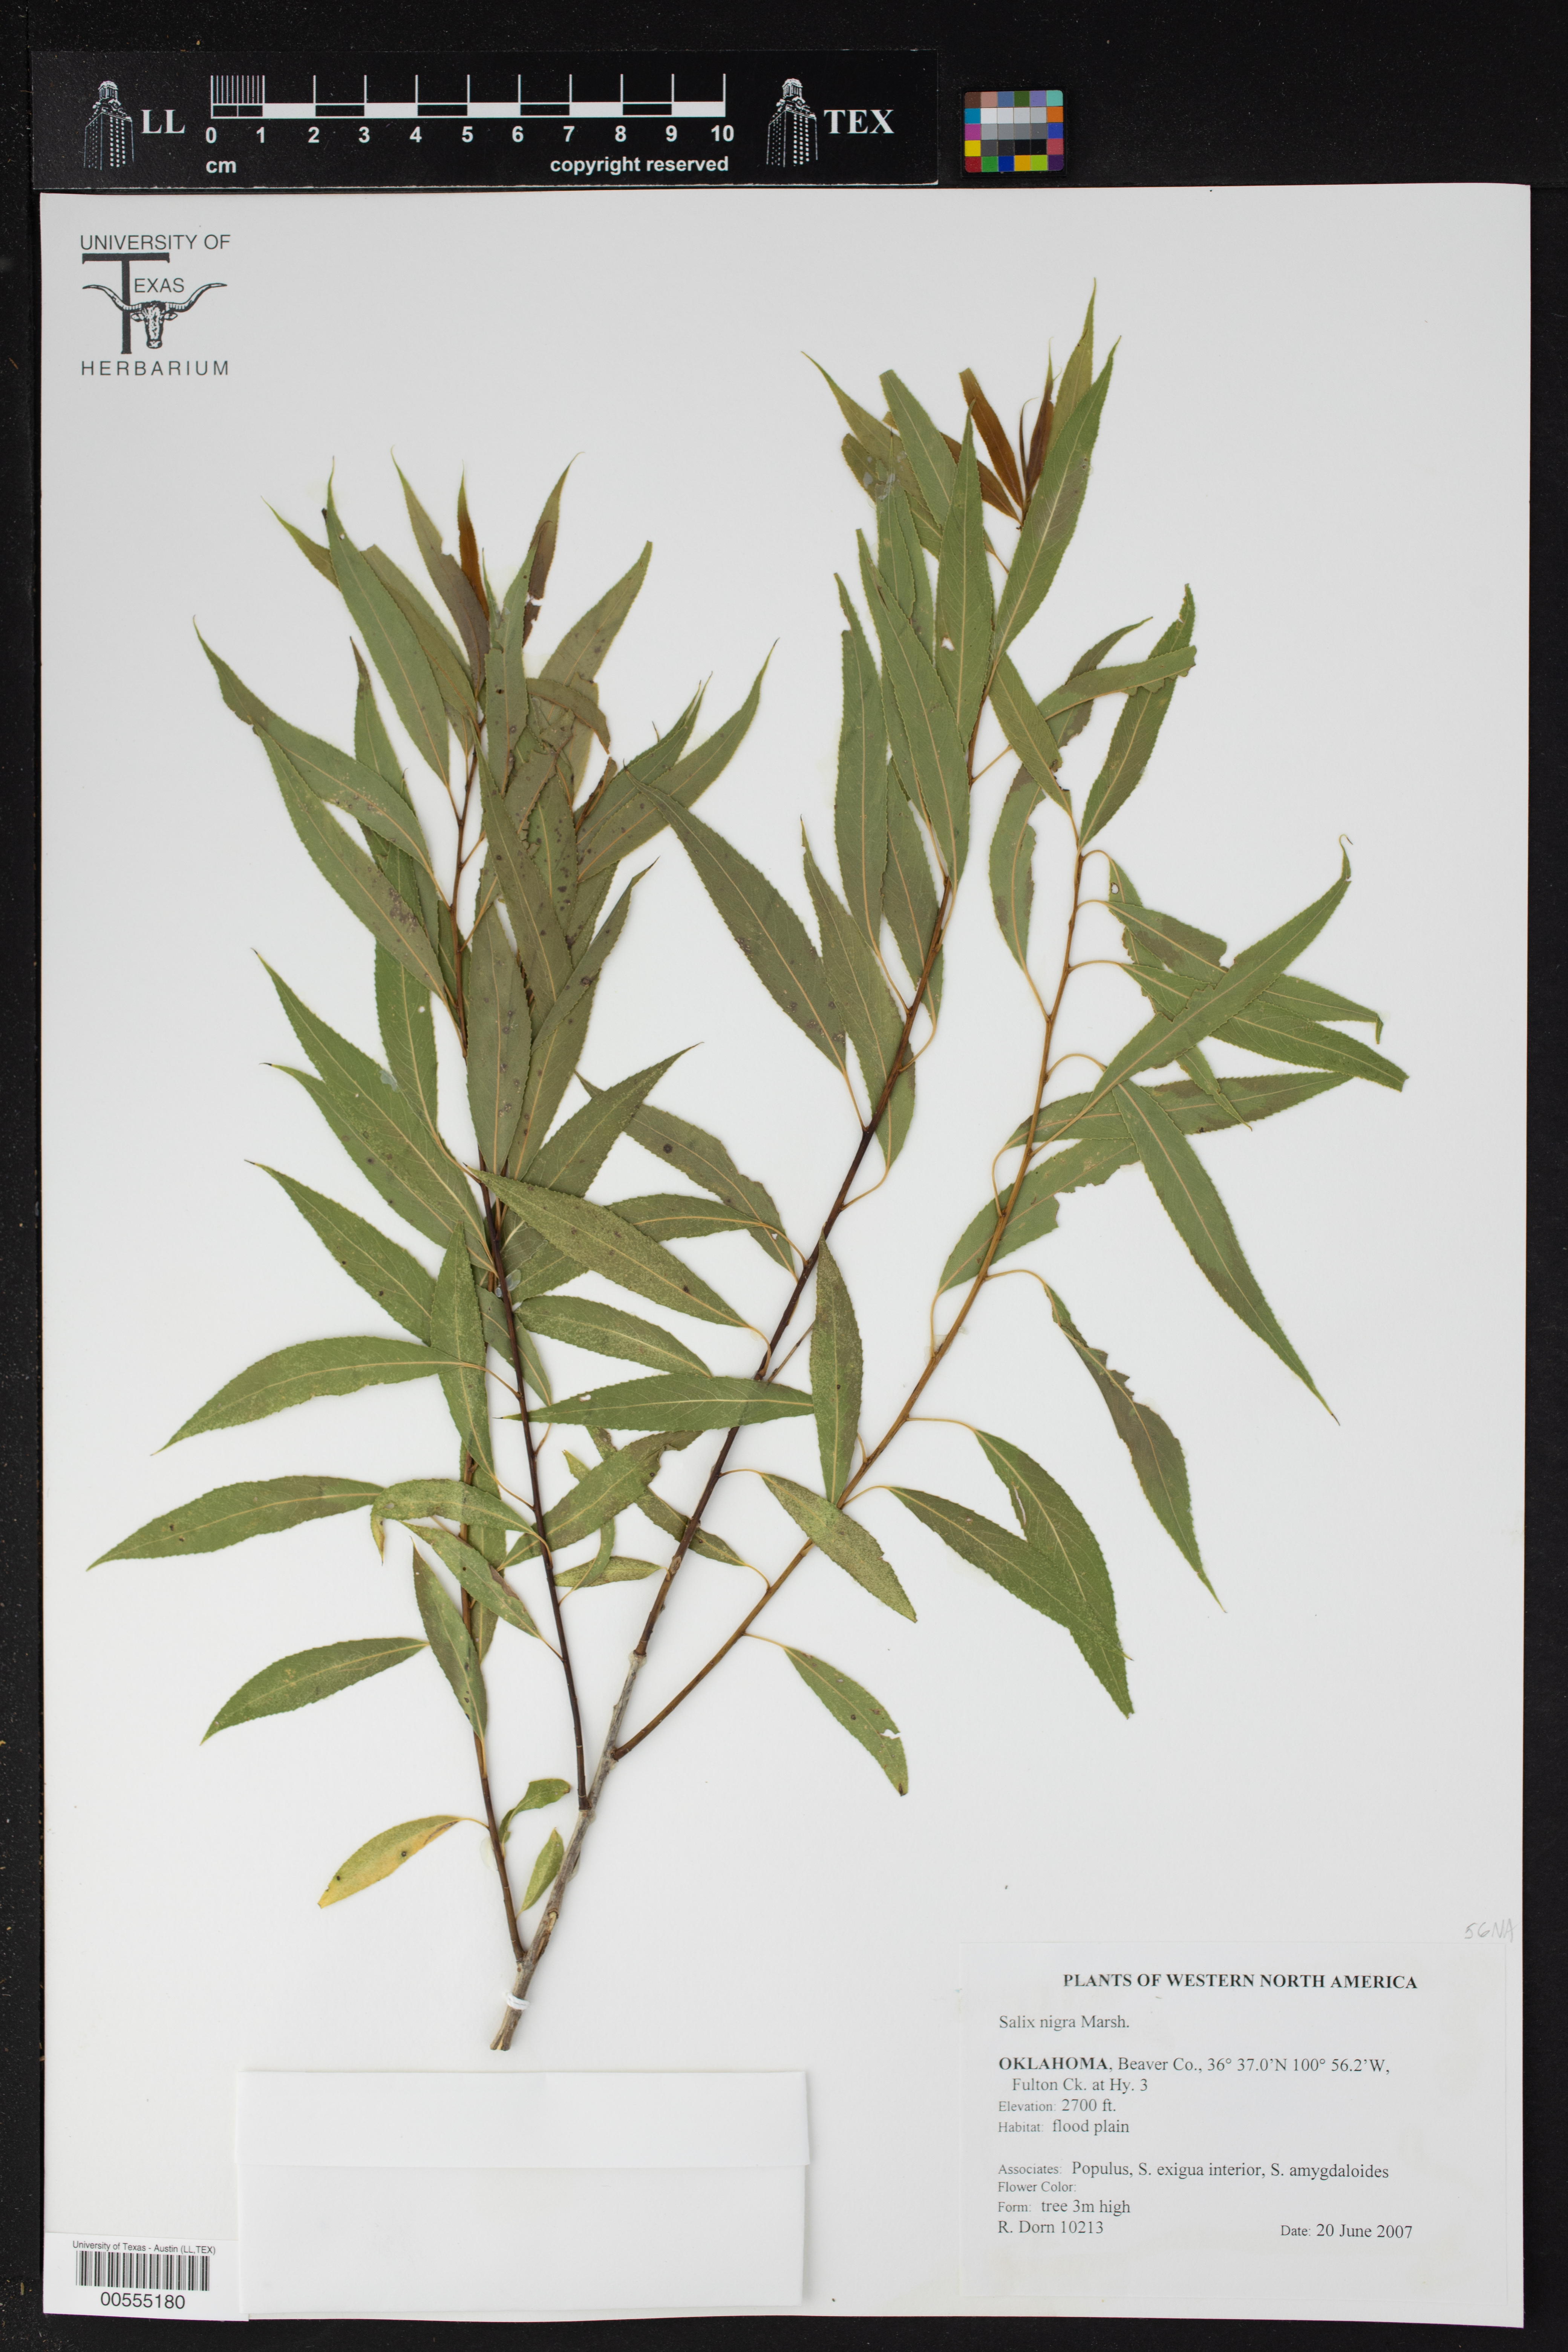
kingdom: Plantae
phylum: Tracheophyta
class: Magnoliopsida
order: Malpighiales
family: Salicaceae
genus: Salix
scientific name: Salix nigra
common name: Black willow
